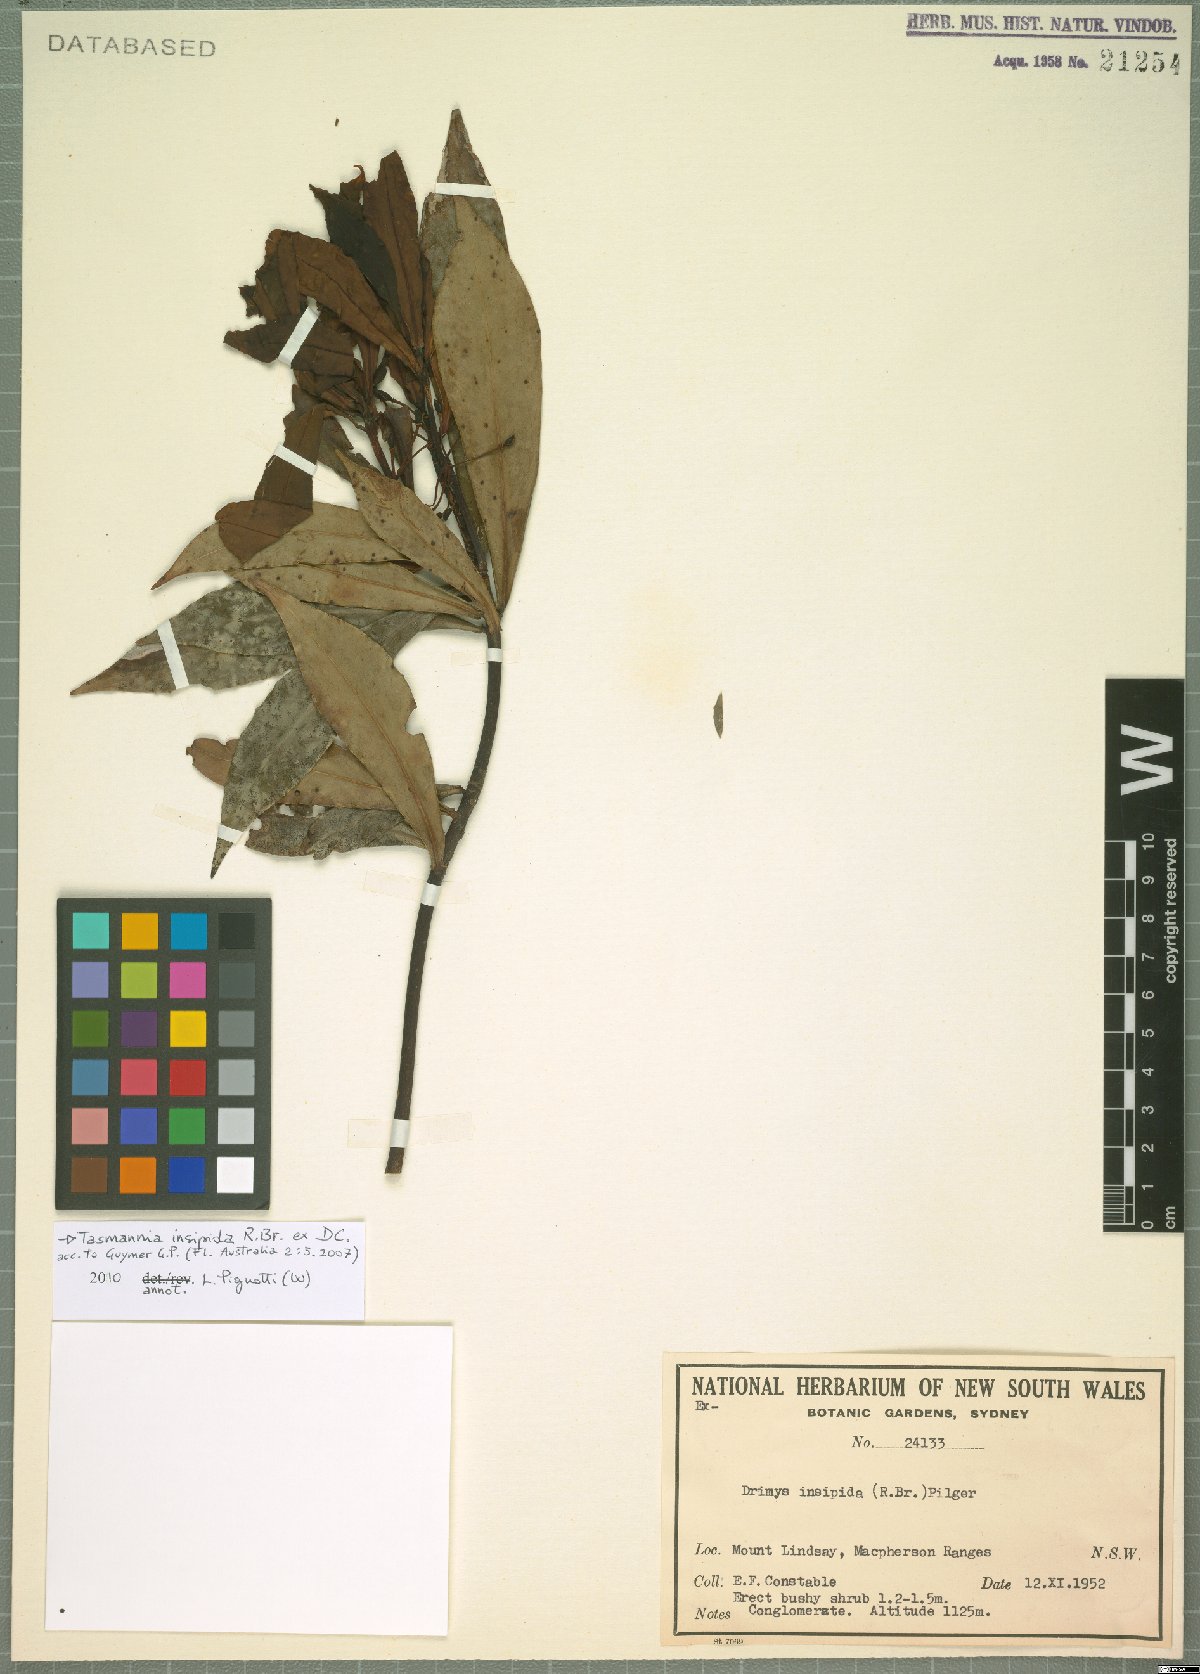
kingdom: Plantae
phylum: Tracheophyta
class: Magnoliopsida
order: Canellales
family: Winteraceae
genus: Drimys
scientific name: Drimys insipida
